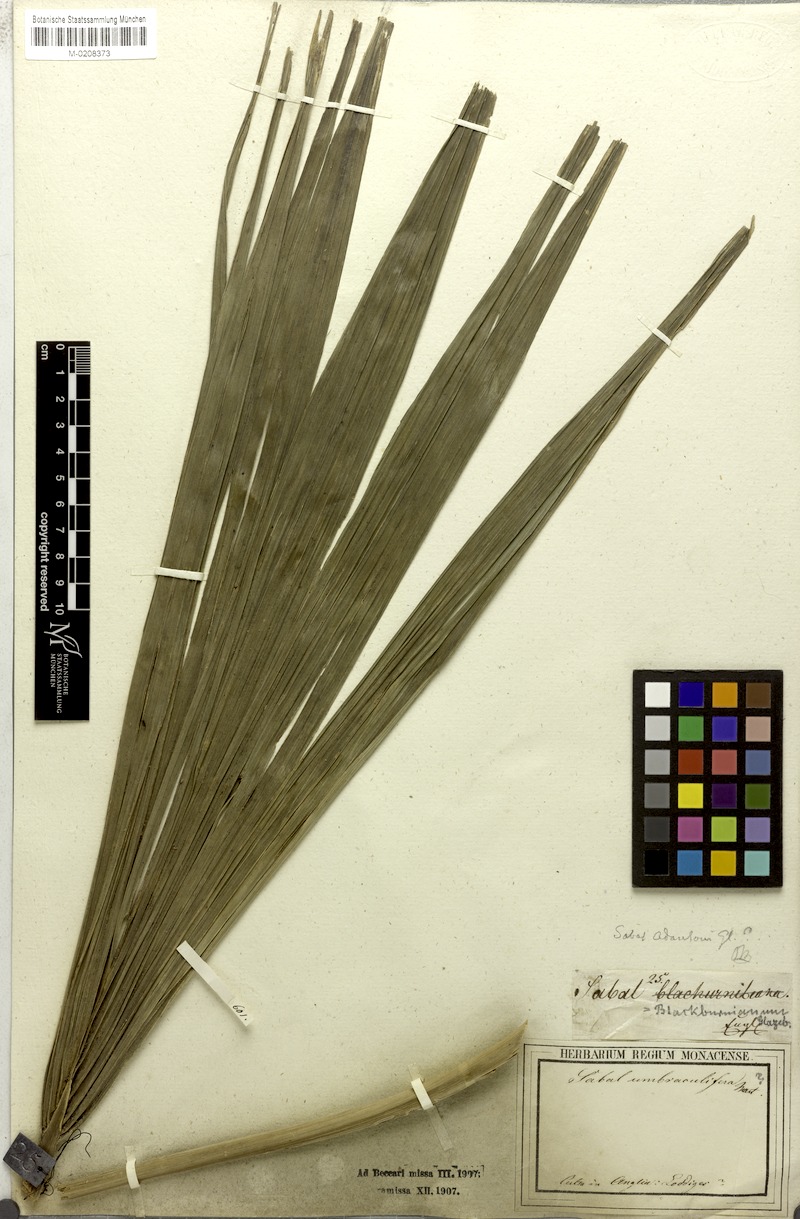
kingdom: Plantae
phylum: Tracheophyta
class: Liliopsida
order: Arecales
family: Arecaceae
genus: Sabal
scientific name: Sabal palmetto
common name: Blue palmetto
